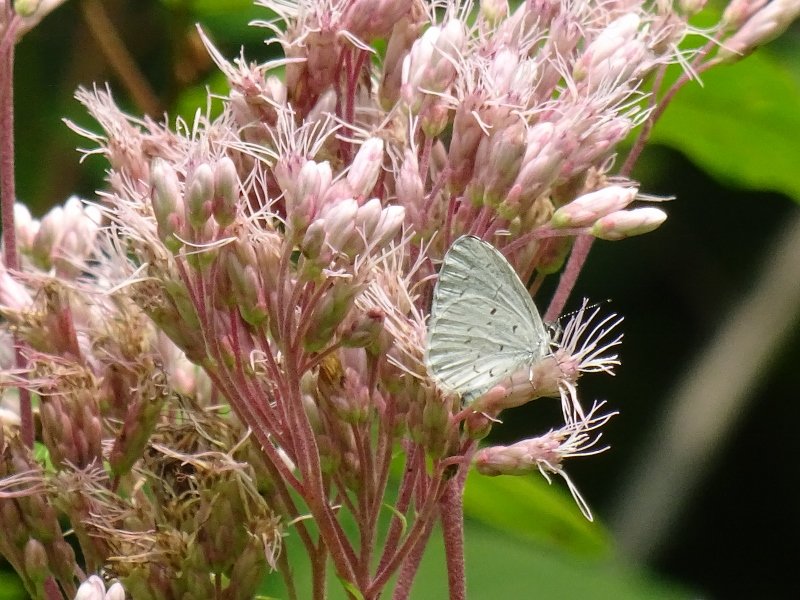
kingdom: Animalia
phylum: Arthropoda
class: Insecta
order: Lepidoptera
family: Lycaenidae
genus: Celastrina
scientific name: Celastrina
